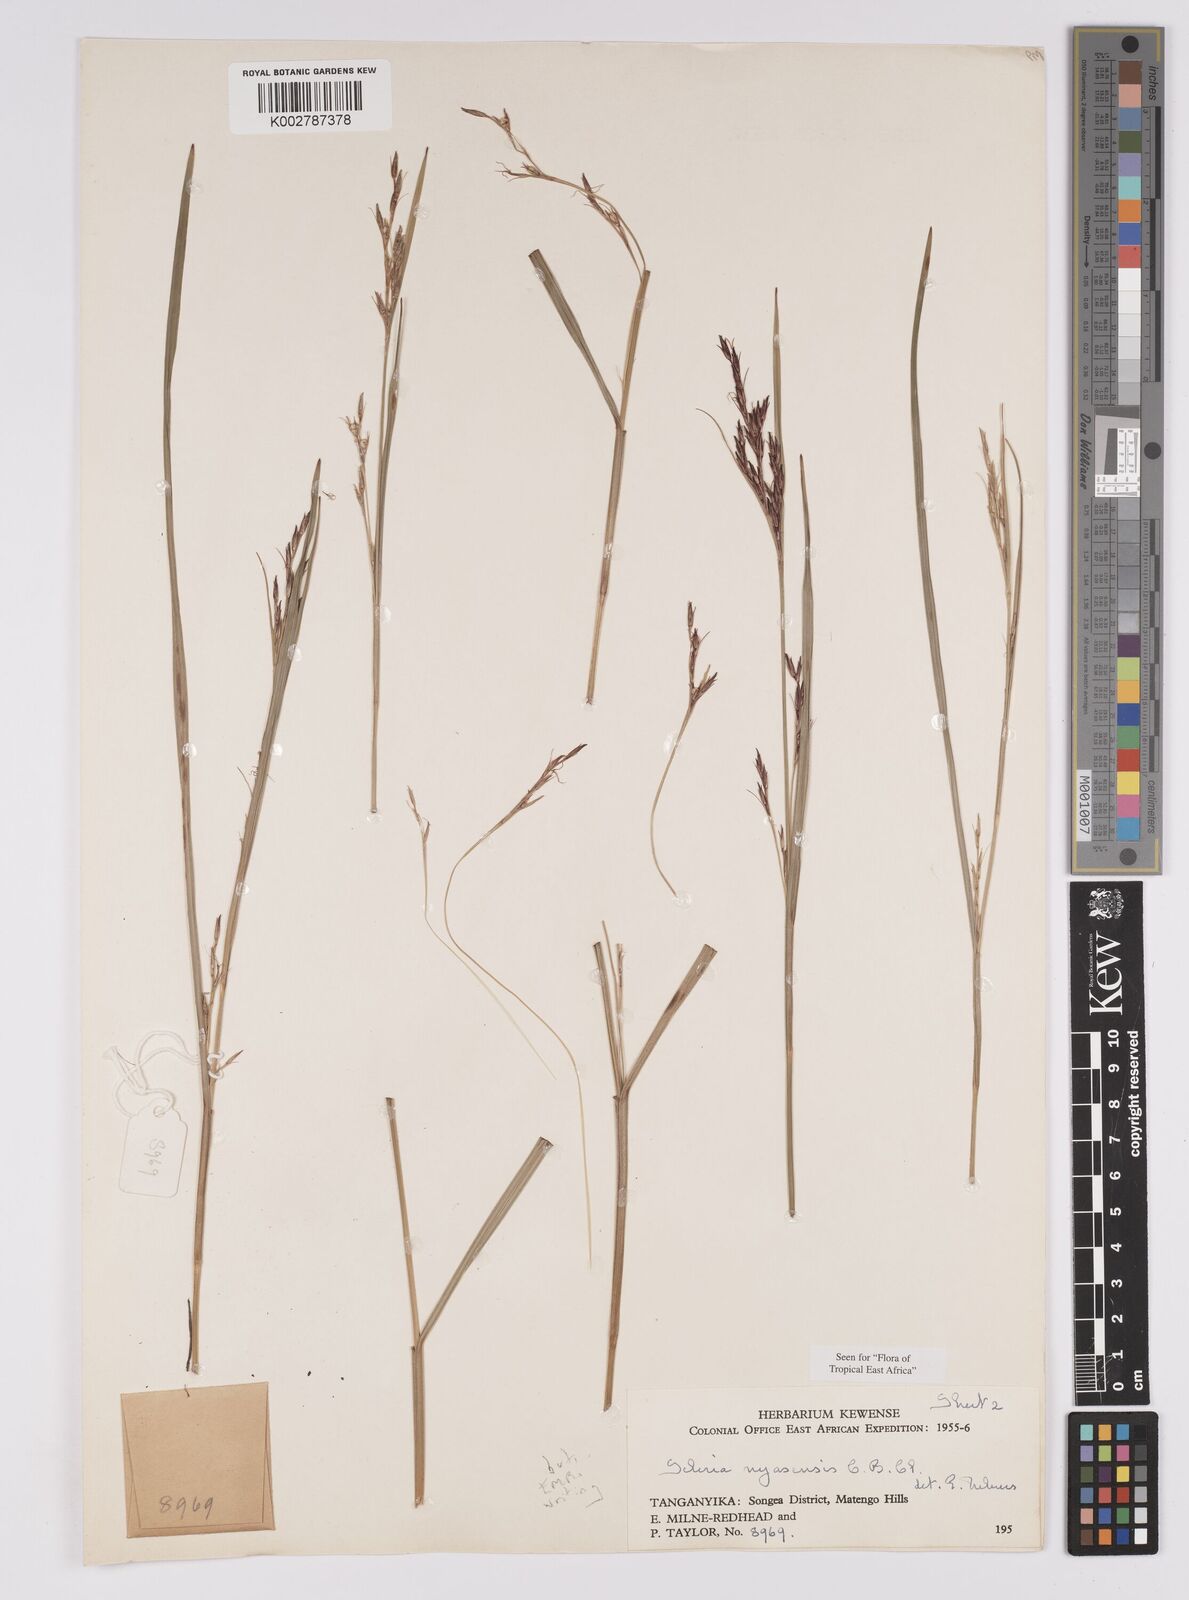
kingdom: Plantae
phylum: Tracheophyta
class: Liliopsida
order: Poales
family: Cyperaceae
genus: Scleria
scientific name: Scleria nyasensis
